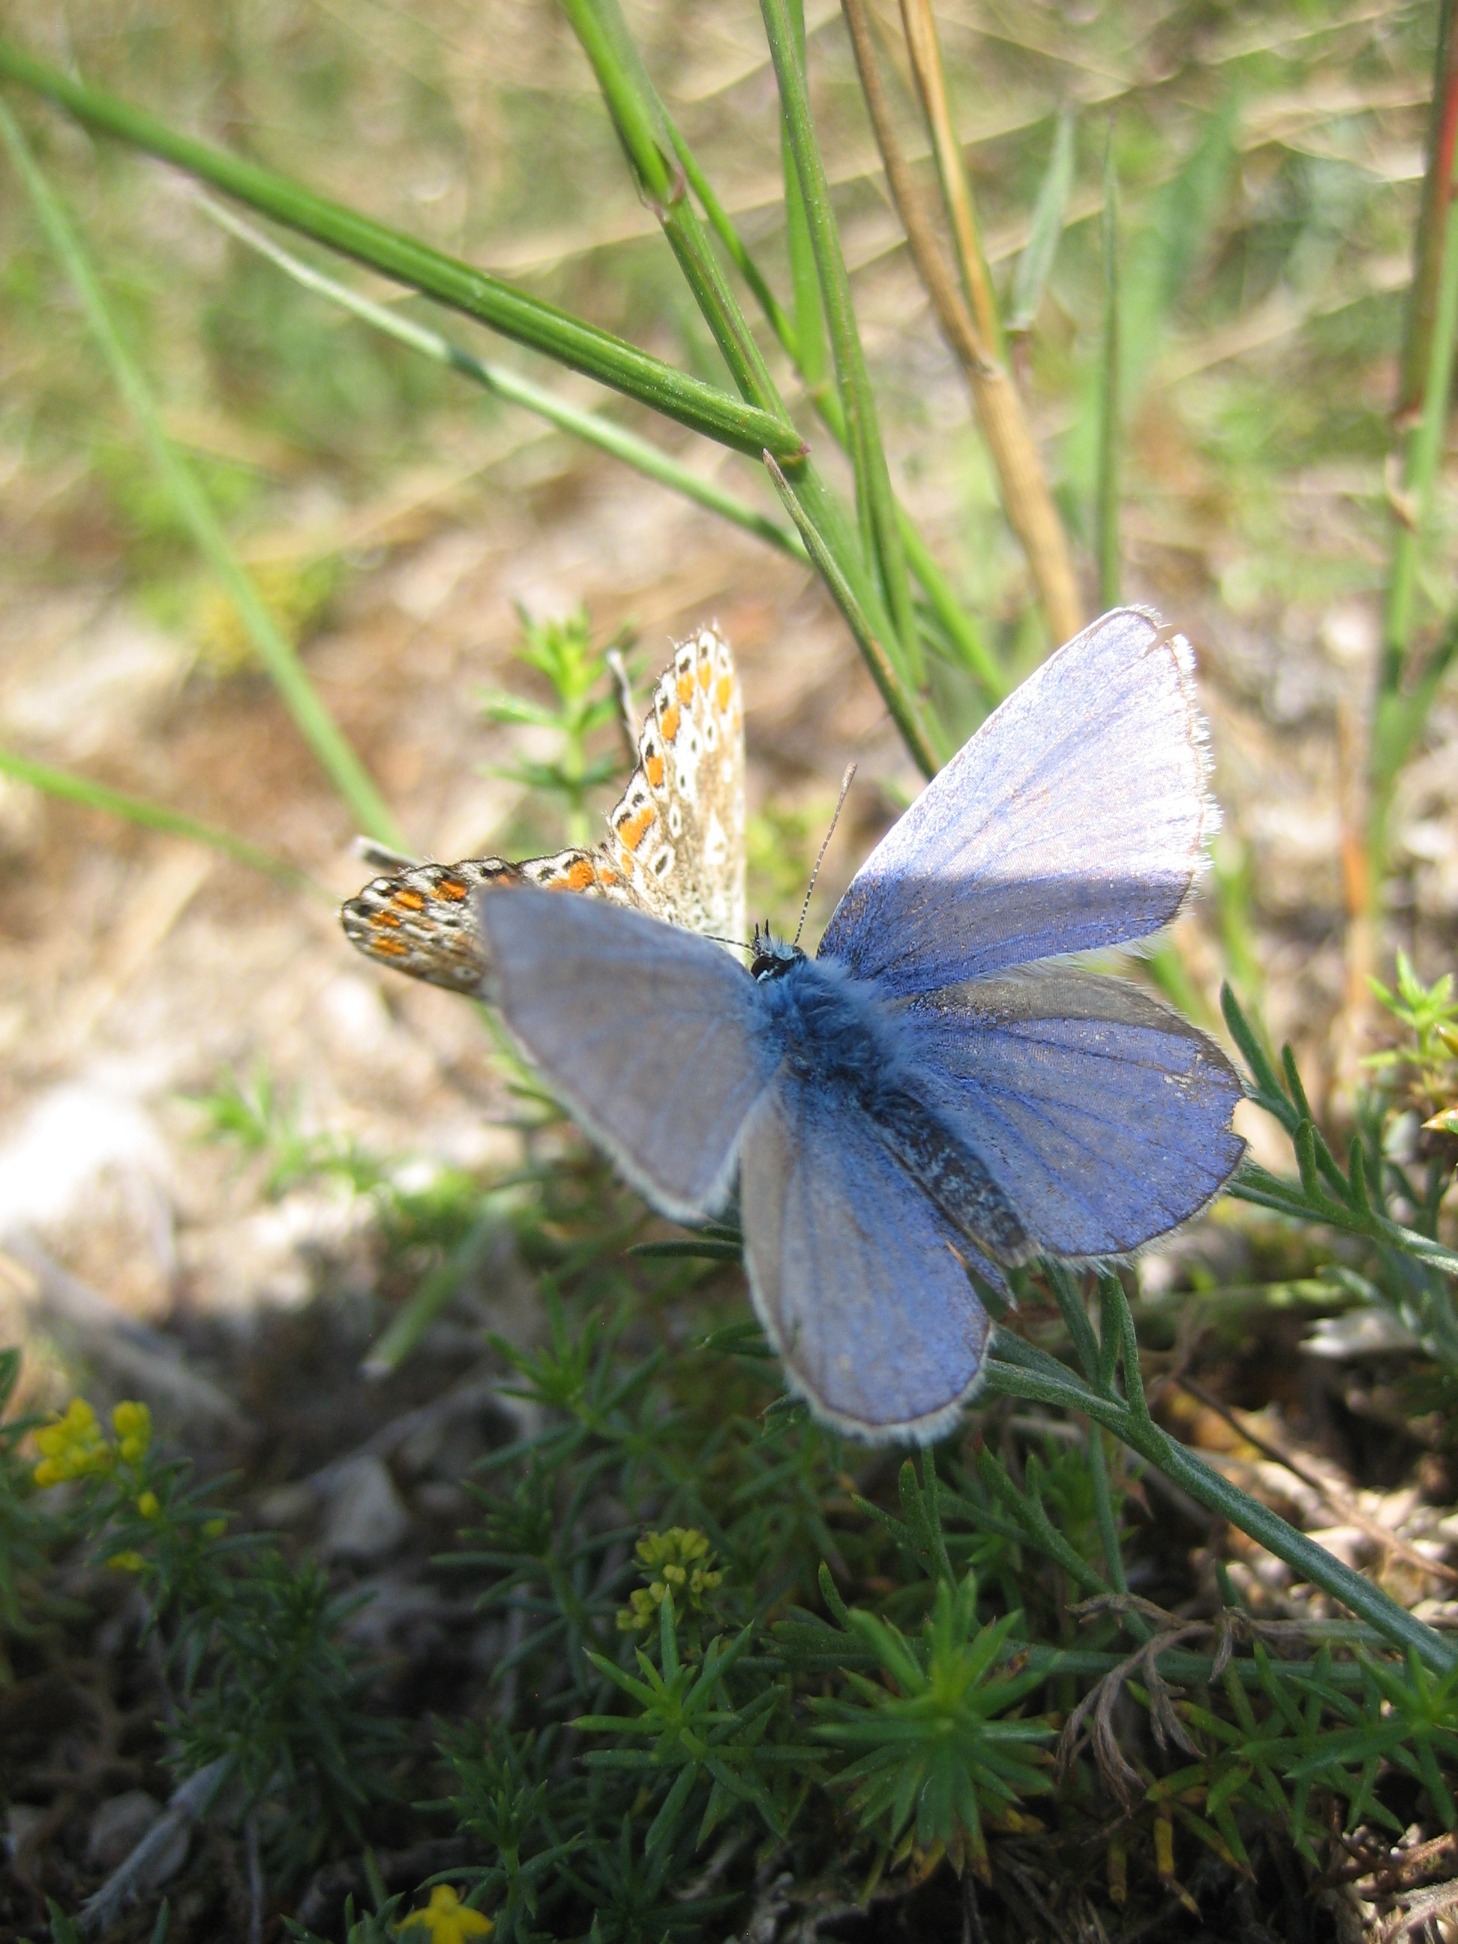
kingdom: Animalia
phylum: Arthropoda
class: Insecta
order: Lepidoptera
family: Lycaenidae
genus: Polyommatus
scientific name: Polyommatus icarus
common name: Almindelig blåfugl
